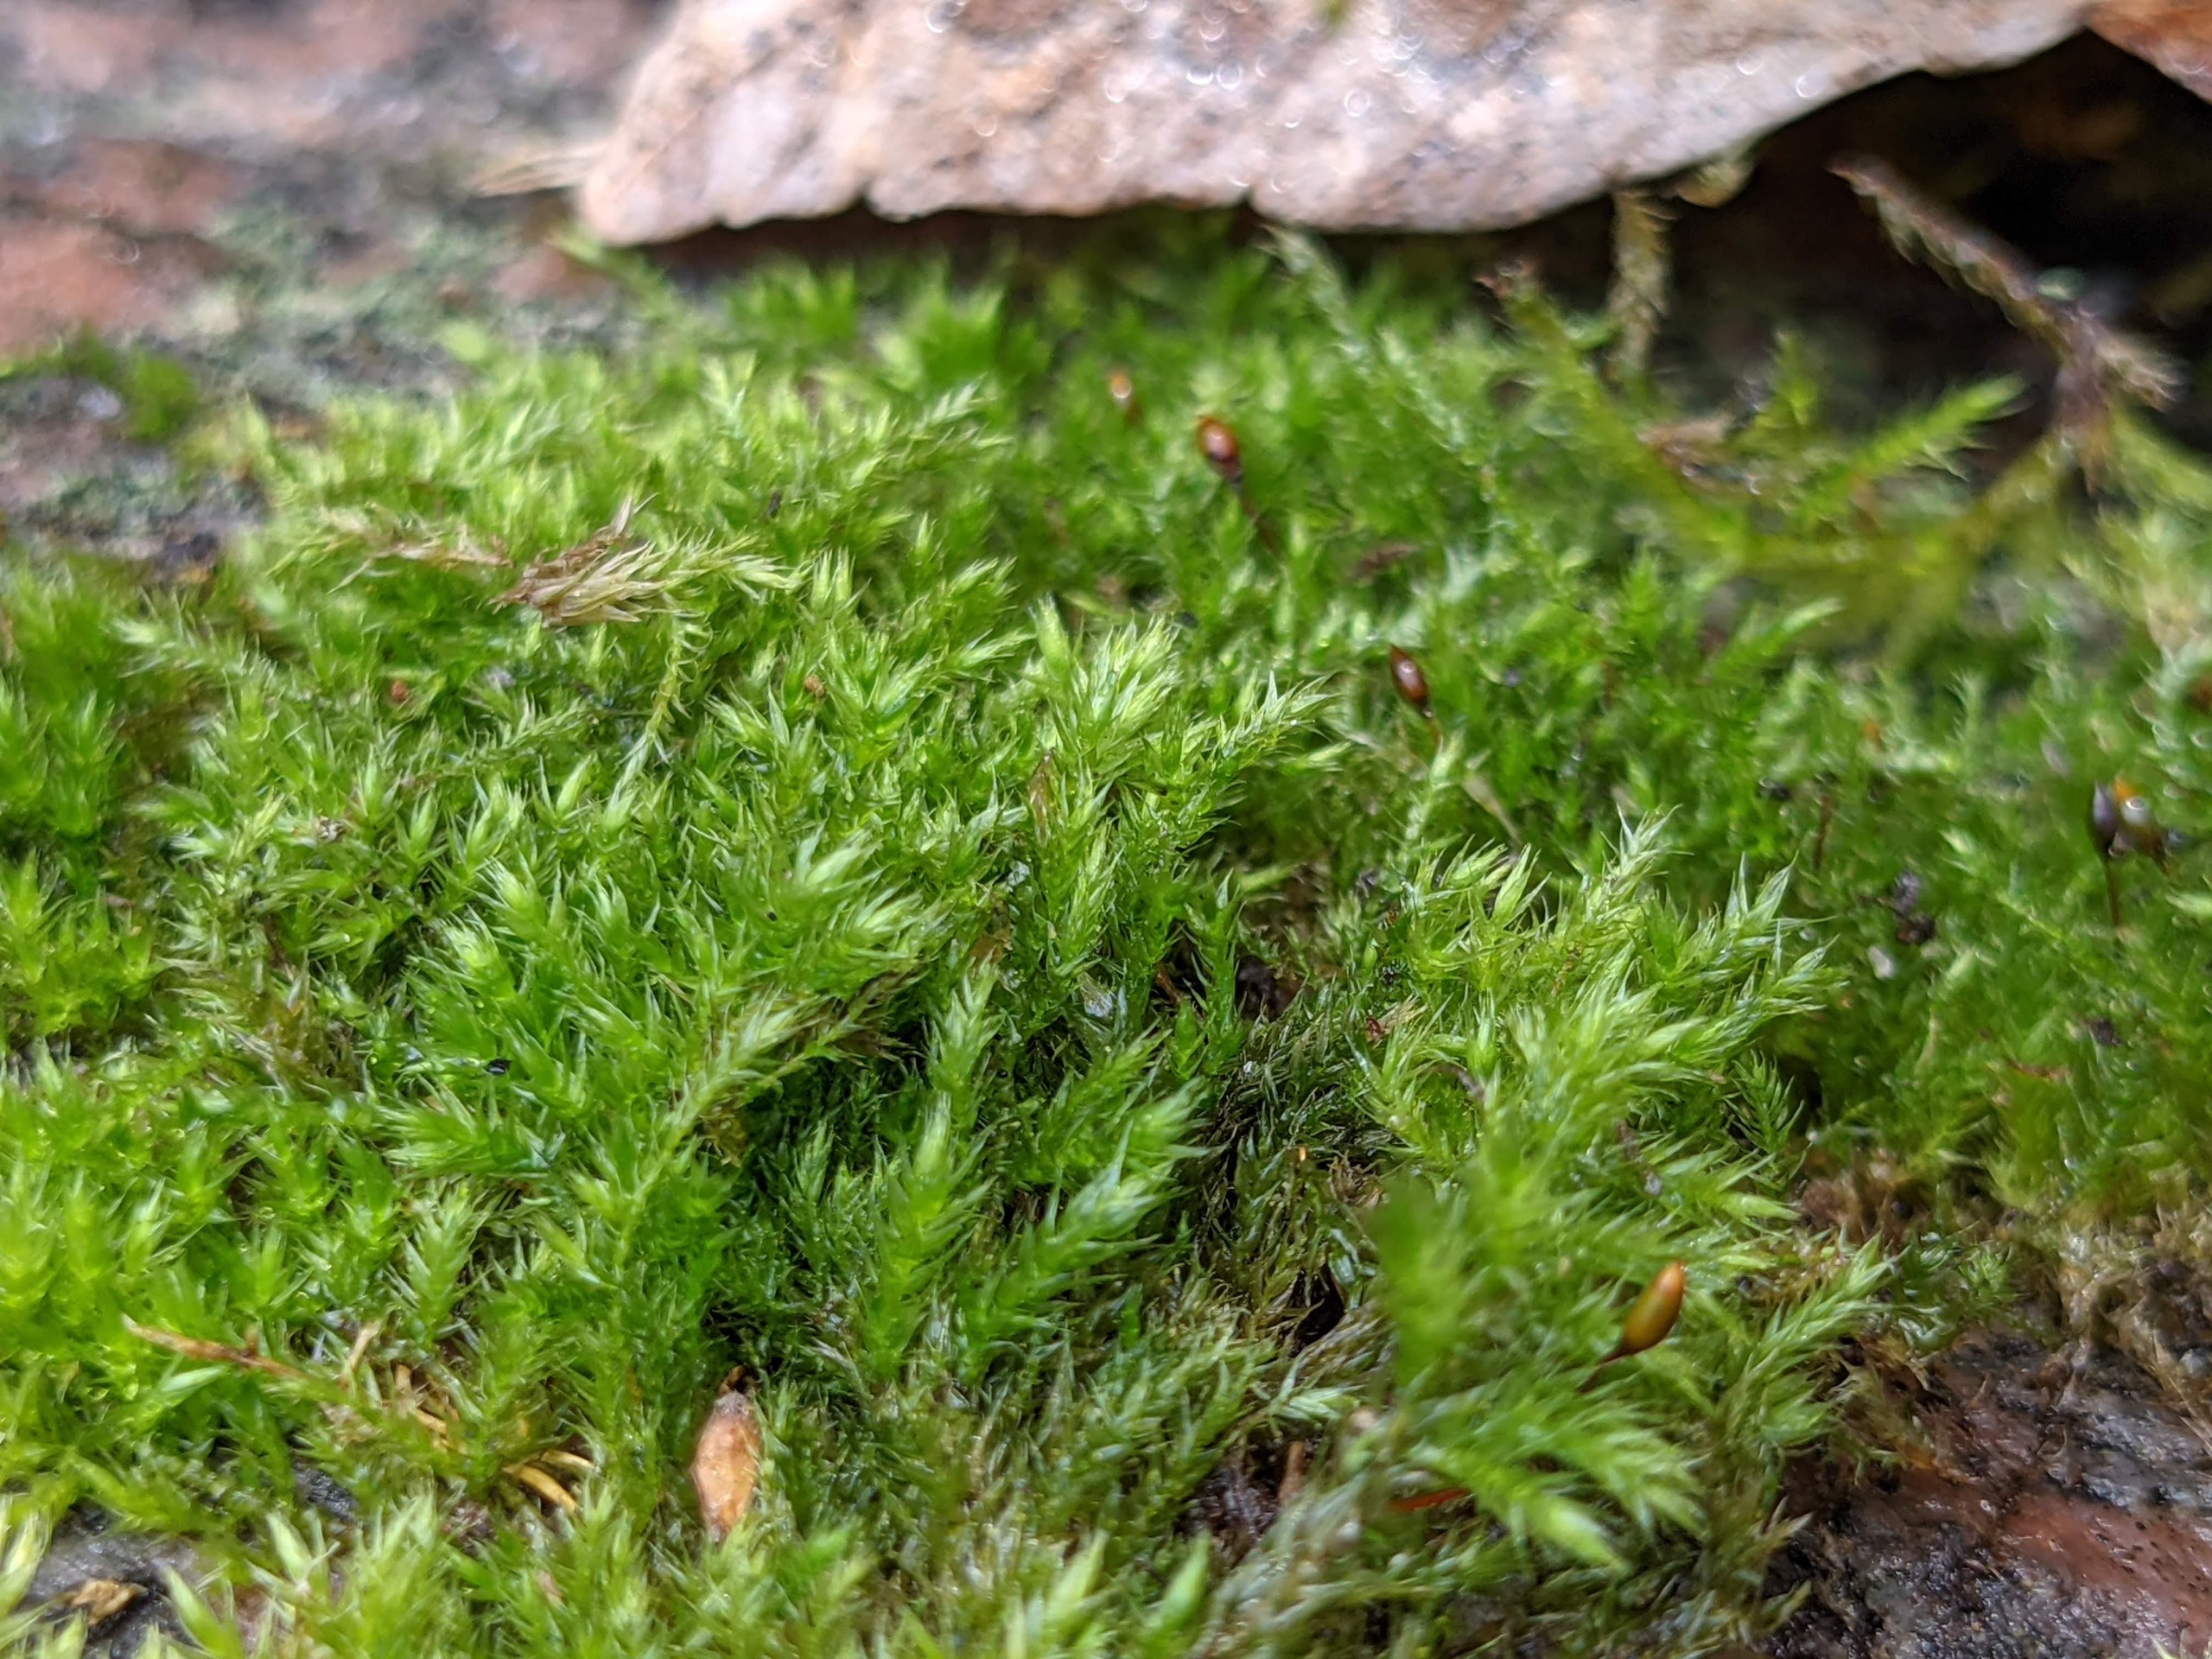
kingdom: Plantae
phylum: Bryophyta
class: Bryopsida
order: Hypnales
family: Brachytheciaceae
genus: Sciuro-hypnum
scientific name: Sciuro-hypnum populeum
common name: Park-kortkapsel
